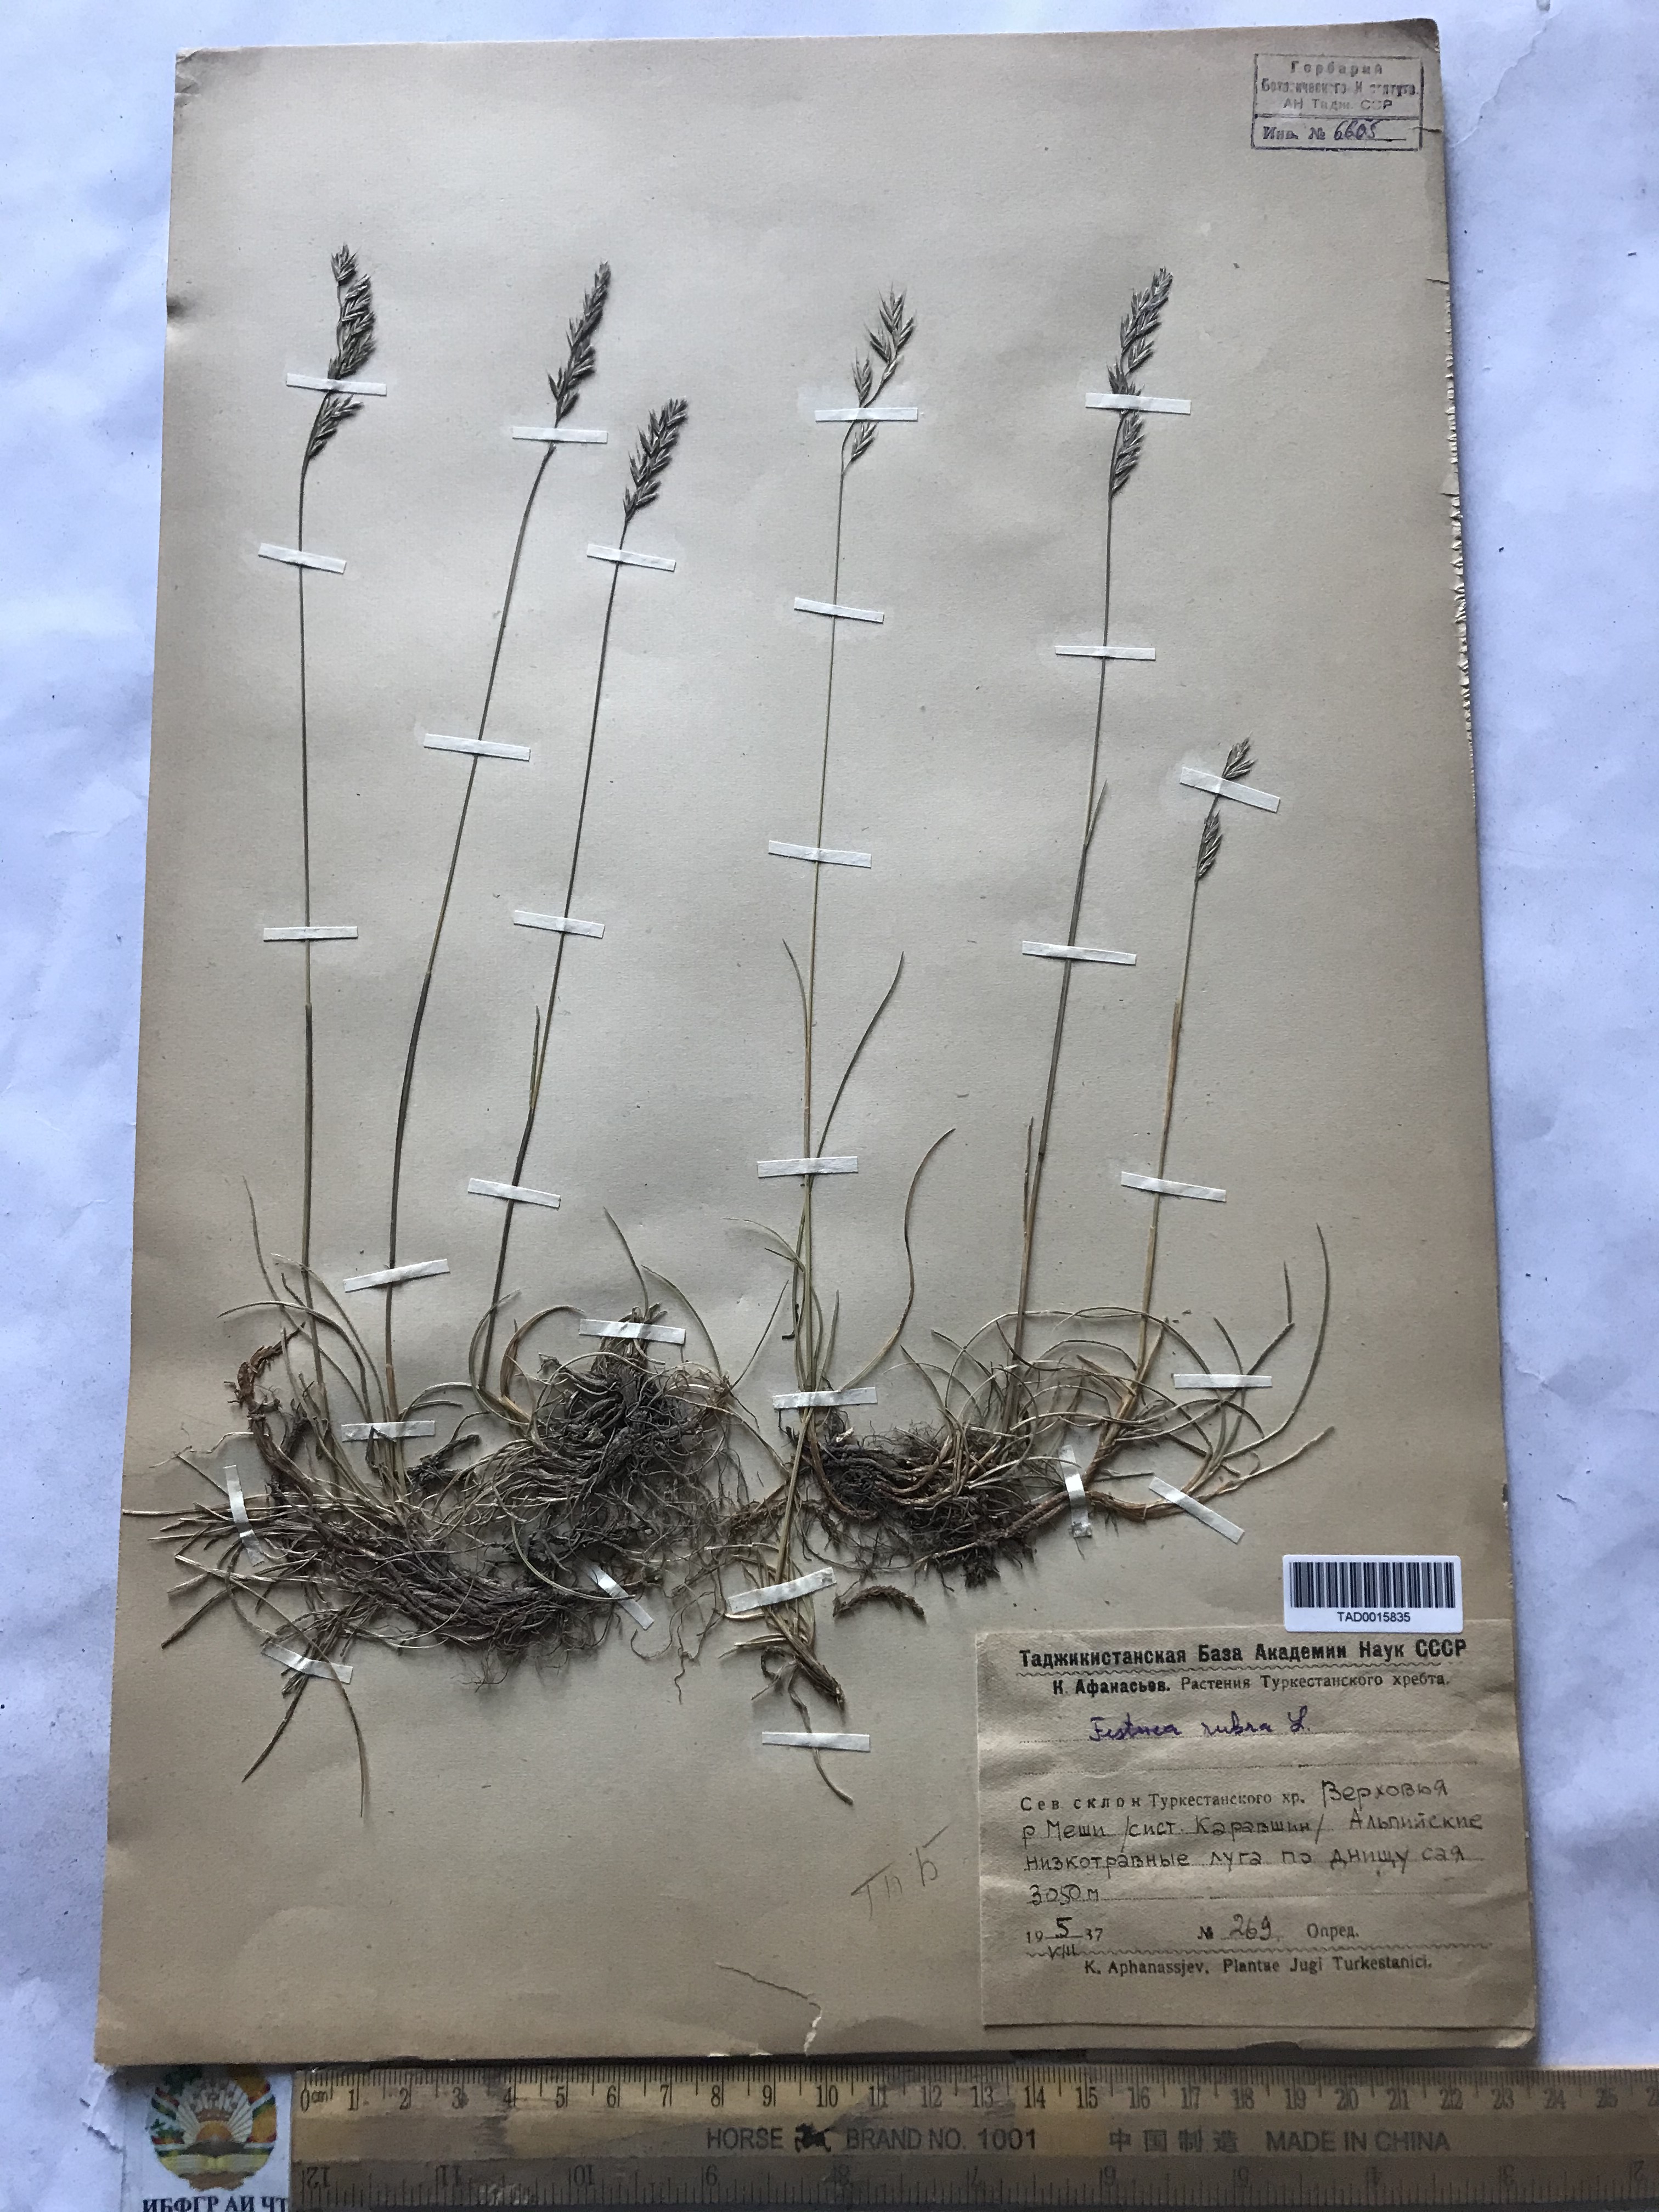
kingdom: Plantae
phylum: Tracheophyta
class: Liliopsida
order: Poales
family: Poaceae
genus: Festuca
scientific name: Festuca rubra
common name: Red fescue
